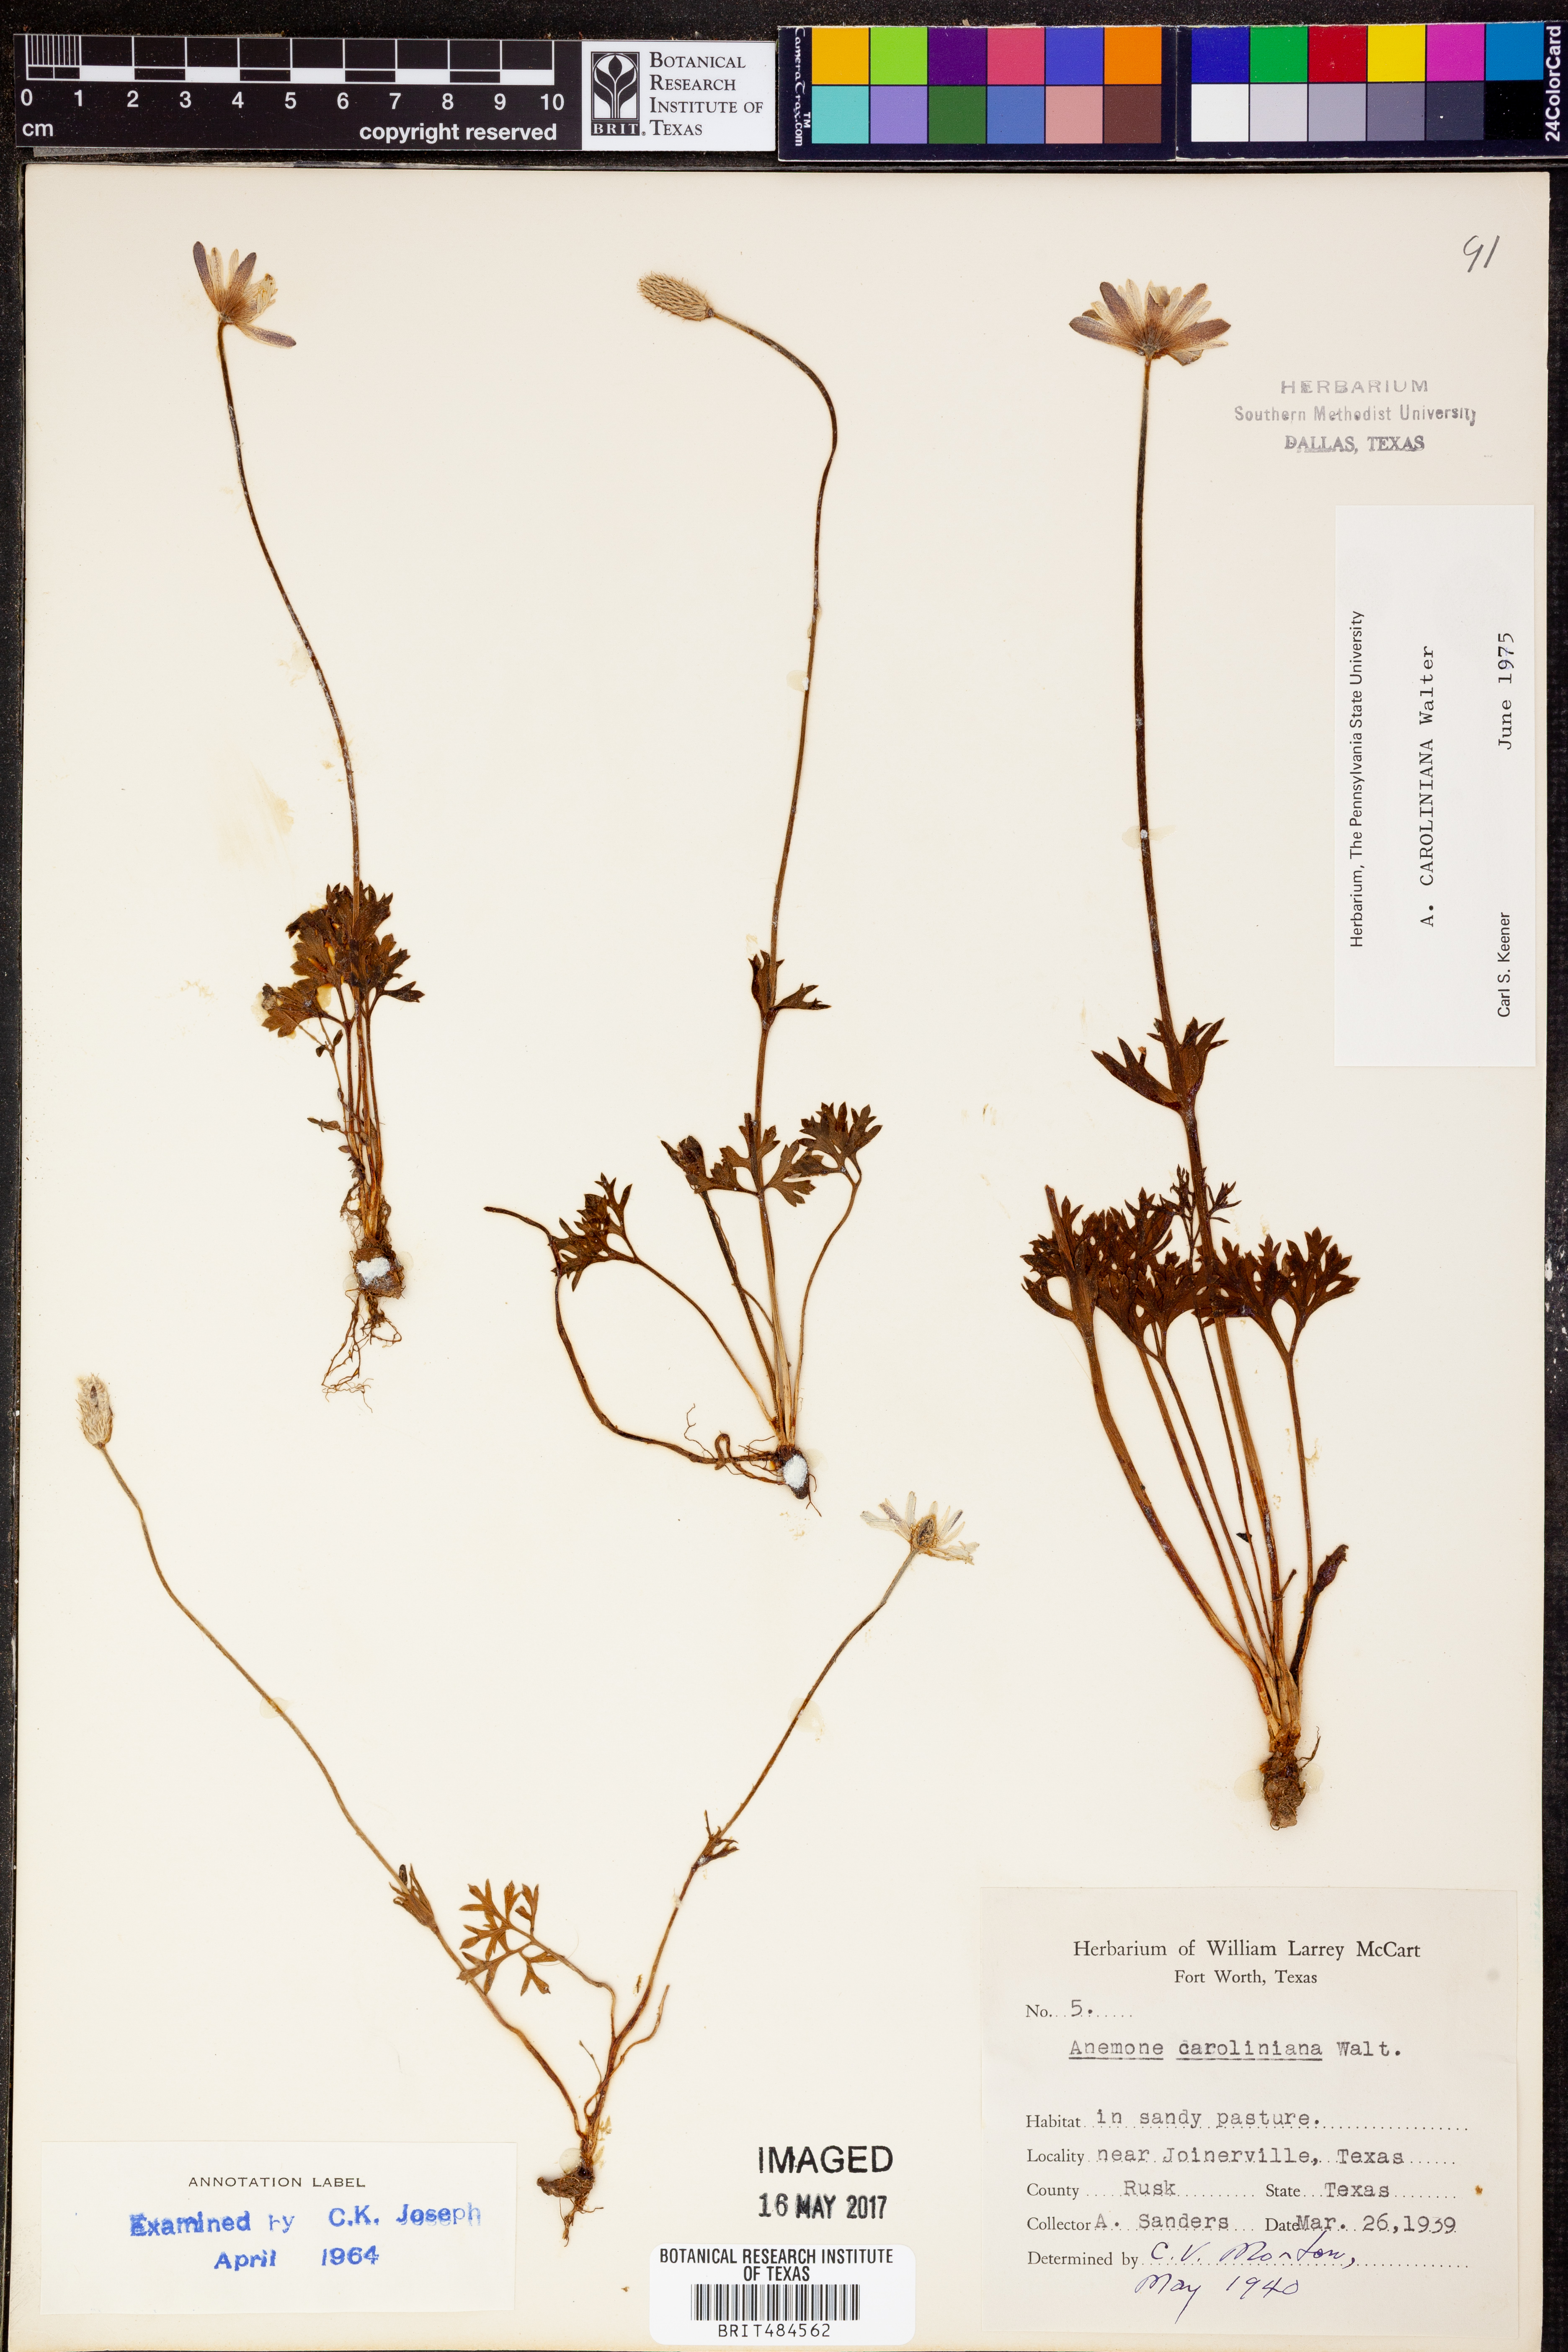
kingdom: Plantae
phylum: Tracheophyta
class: Magnoliopsida
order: Ranunculales
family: Ranunculaceae
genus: Anemone
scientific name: Anemone caroliniana
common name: Carolina anemone
